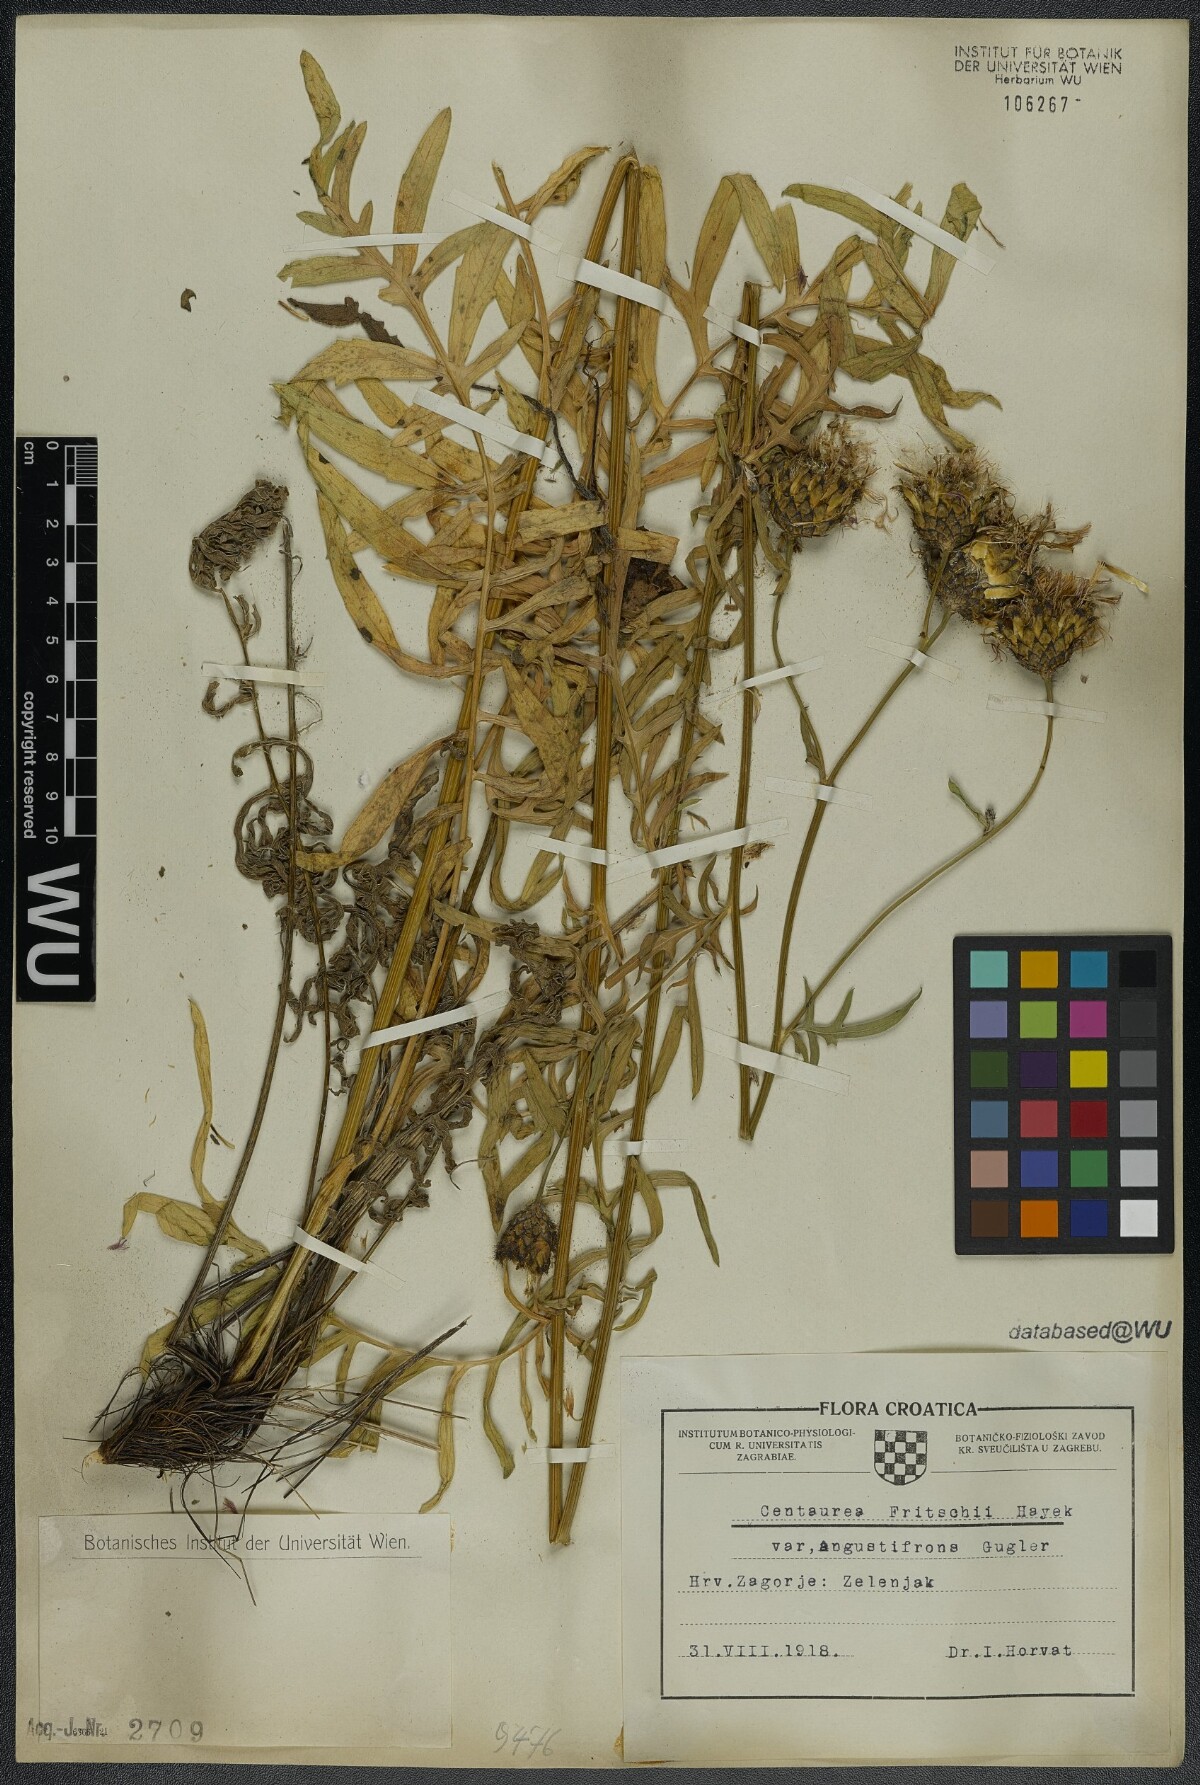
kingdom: Plantae
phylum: Tracheophyta
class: Magnoliopsida
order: Asterales
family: Asteraceae
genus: Centaurea
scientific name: Centaurea scabiosa
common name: Greater knapweed
